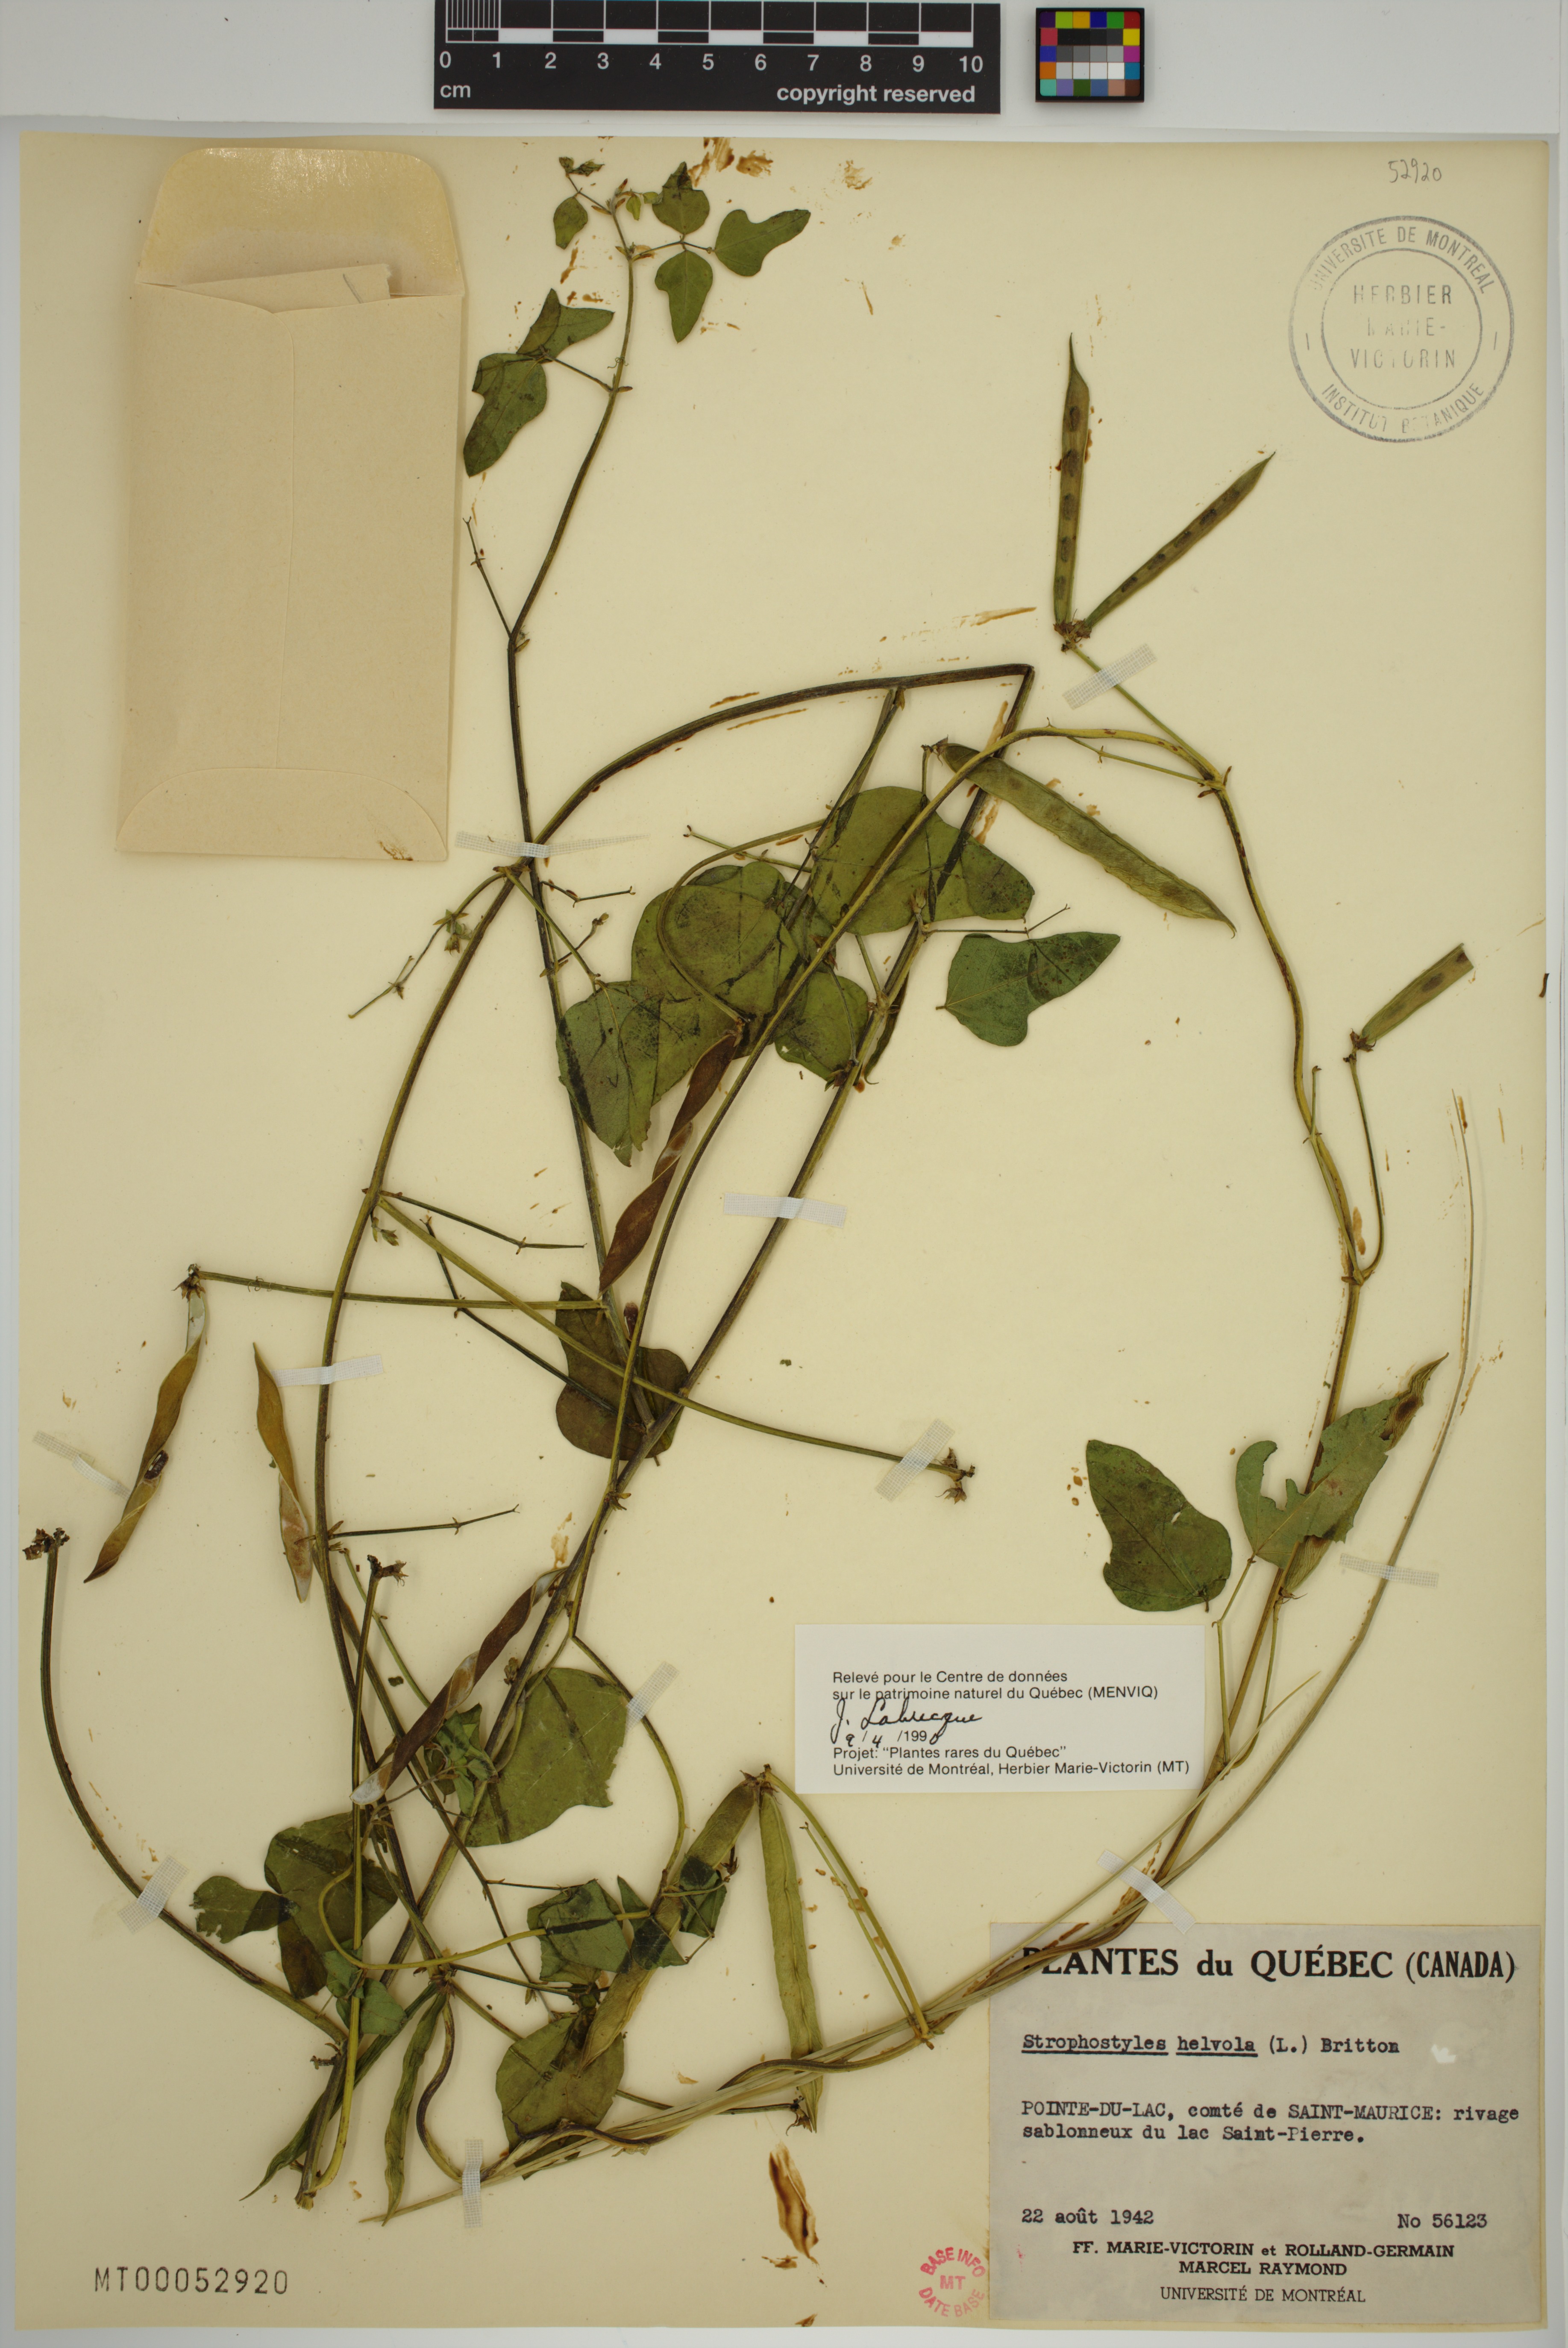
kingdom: Plantae
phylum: Tracheophyta
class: Magnoliopsida
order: Fabales
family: Fabaceae
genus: Strophostyles
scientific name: Strophostyles helvola
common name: Trailing wild bean
